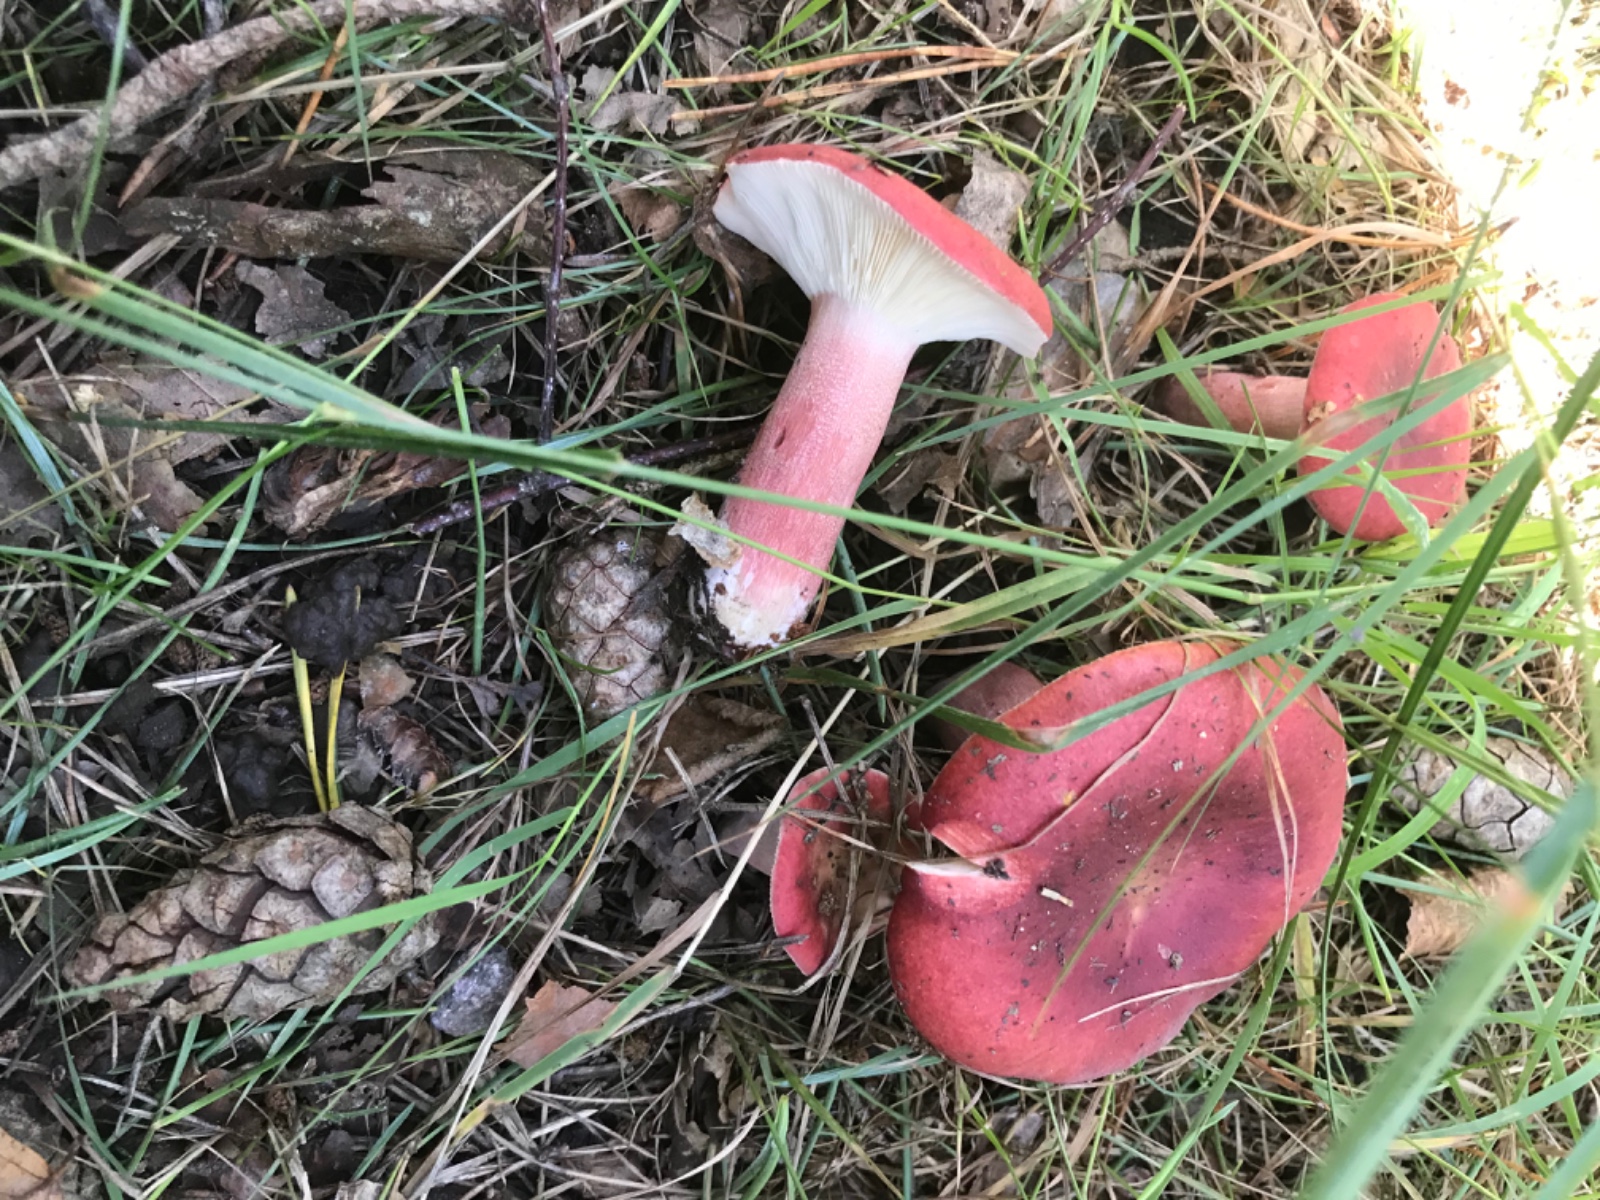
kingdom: Fungi
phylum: Basidiomycota
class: Agaricomycetes
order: Russulales
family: Russulaceae
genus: Russula
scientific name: Russula sanguinea
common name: blodrød skørhat
